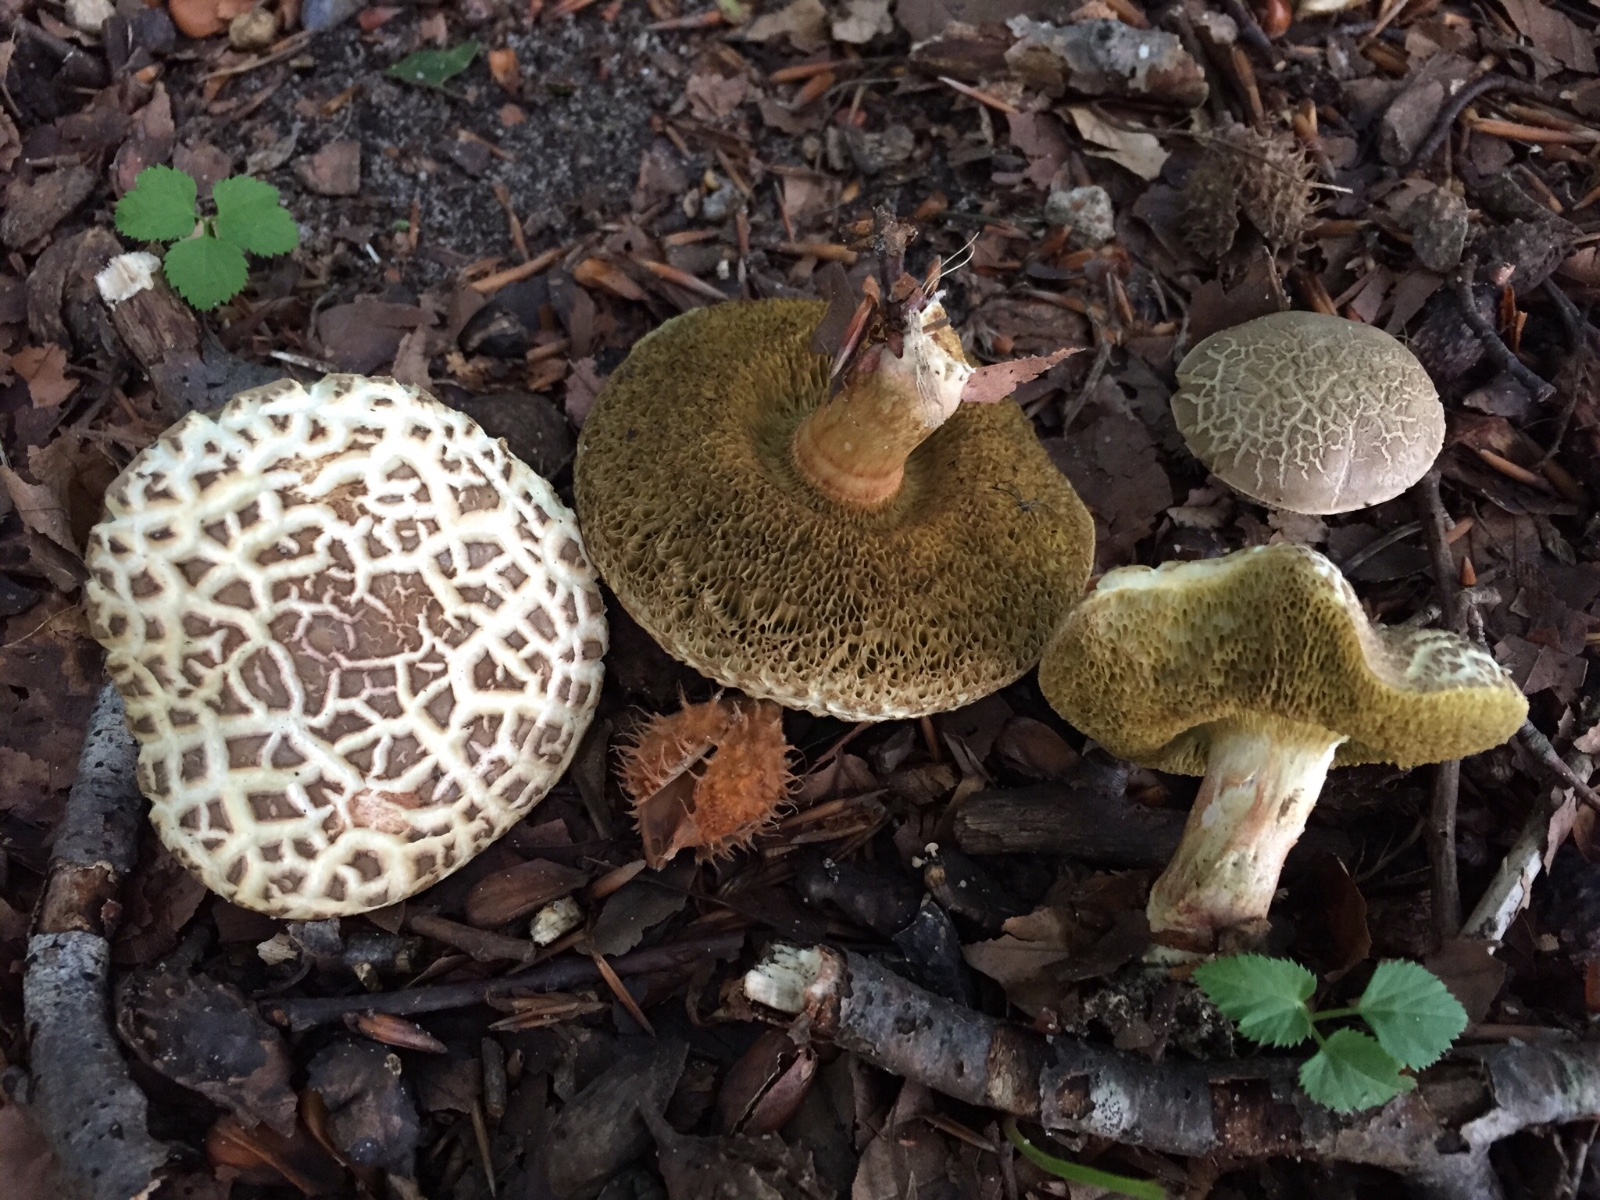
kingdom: Fungi
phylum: Basidiomycota
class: Agaricomycetes
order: Boletales
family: Boletaceae
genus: Xerocomellus
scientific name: Xerocomellus porosporus
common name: hvidsprukken rørhat
